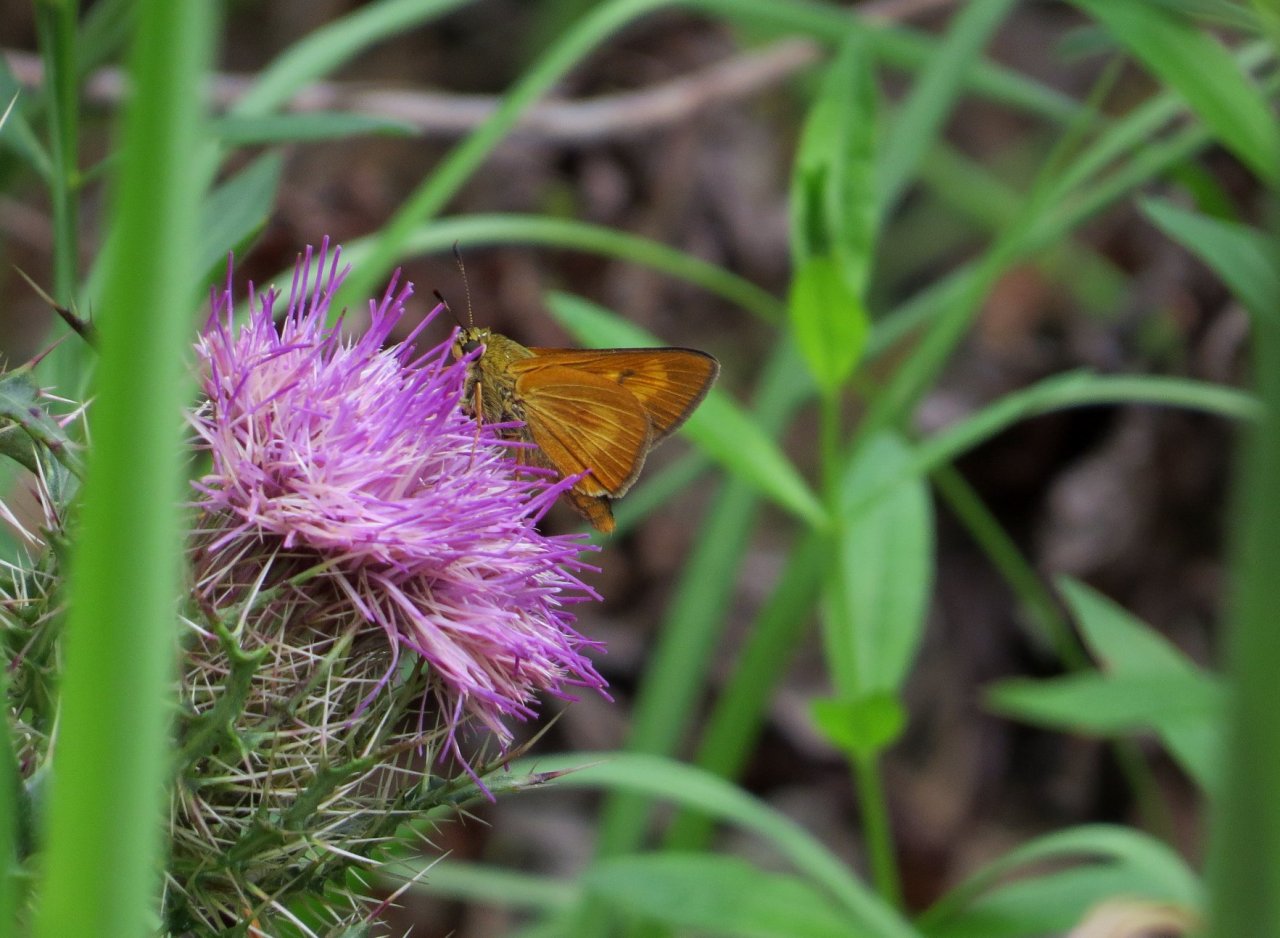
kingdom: Animalia
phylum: Arthropoda
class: Insecta
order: Lepidoptera
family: Hesperiidae
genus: Problema
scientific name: Problema byssus
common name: Byssus Skipper
